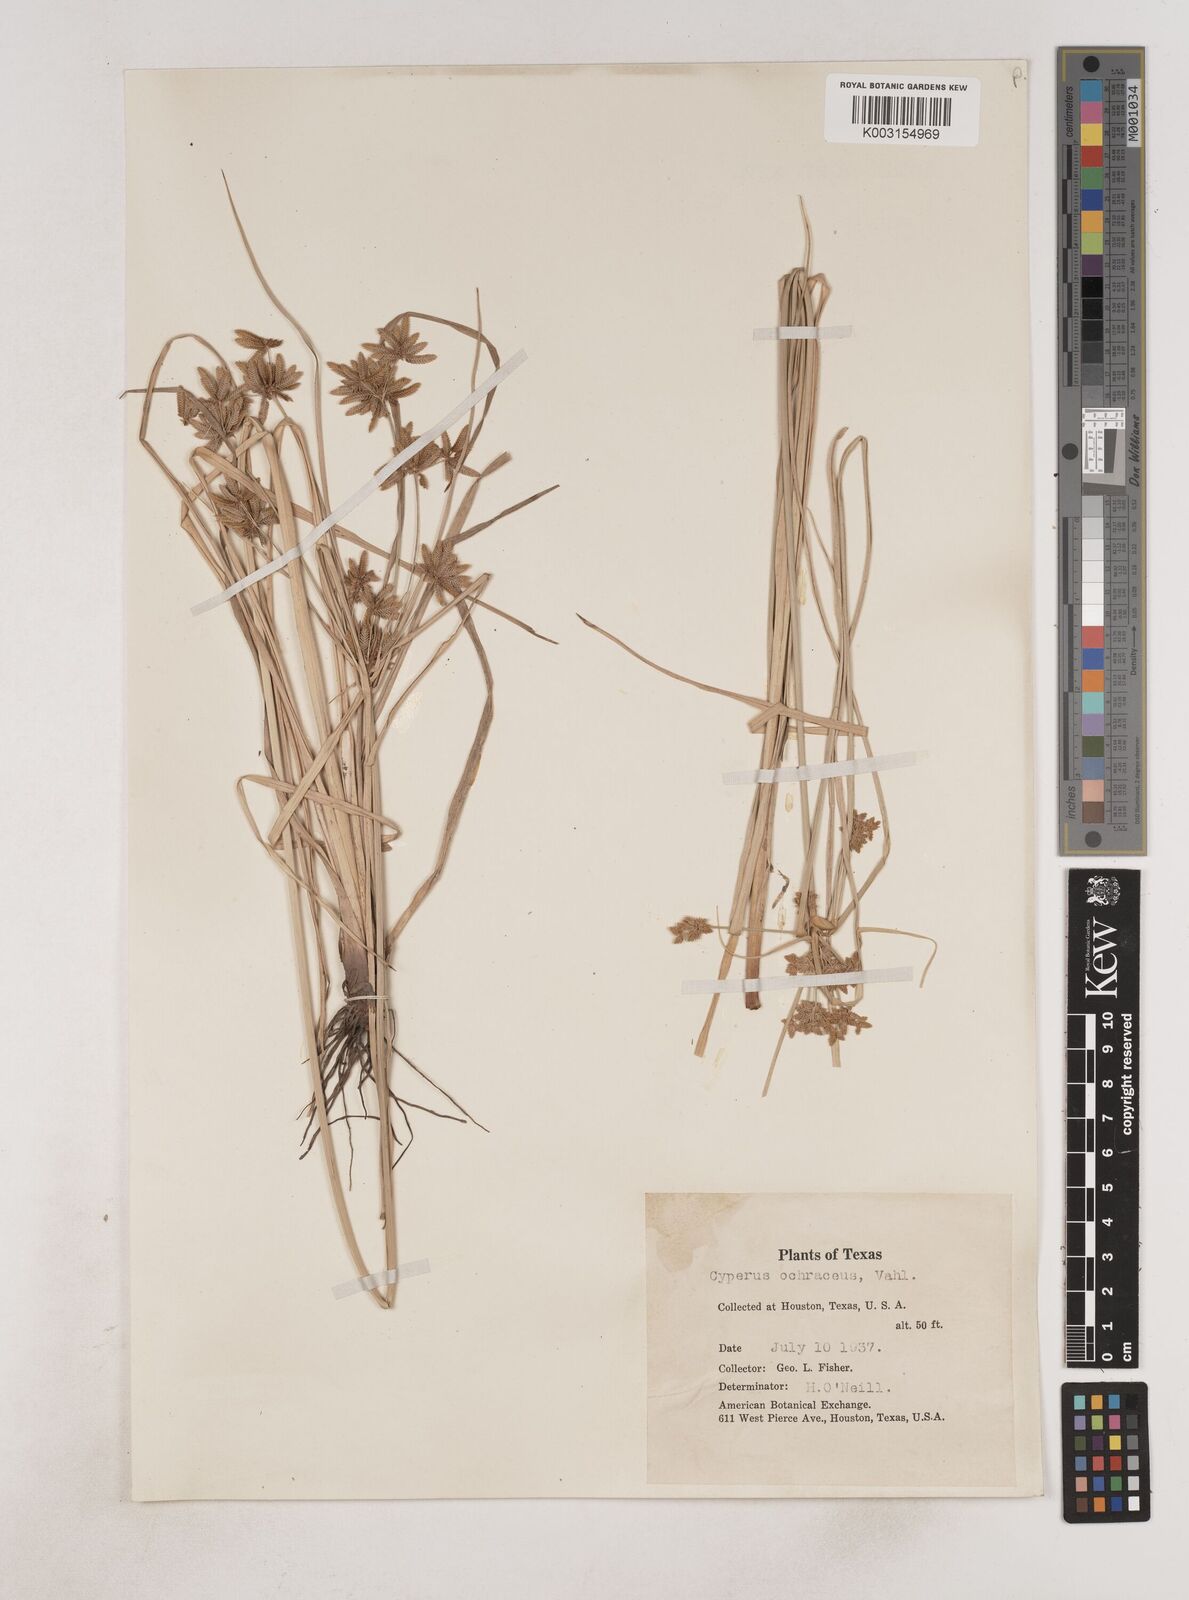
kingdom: Plantae
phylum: Tracheophyta
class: Liliopsida
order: Poales
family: Cyperaceae
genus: Cyperus
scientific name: Cyperus ochraceus
